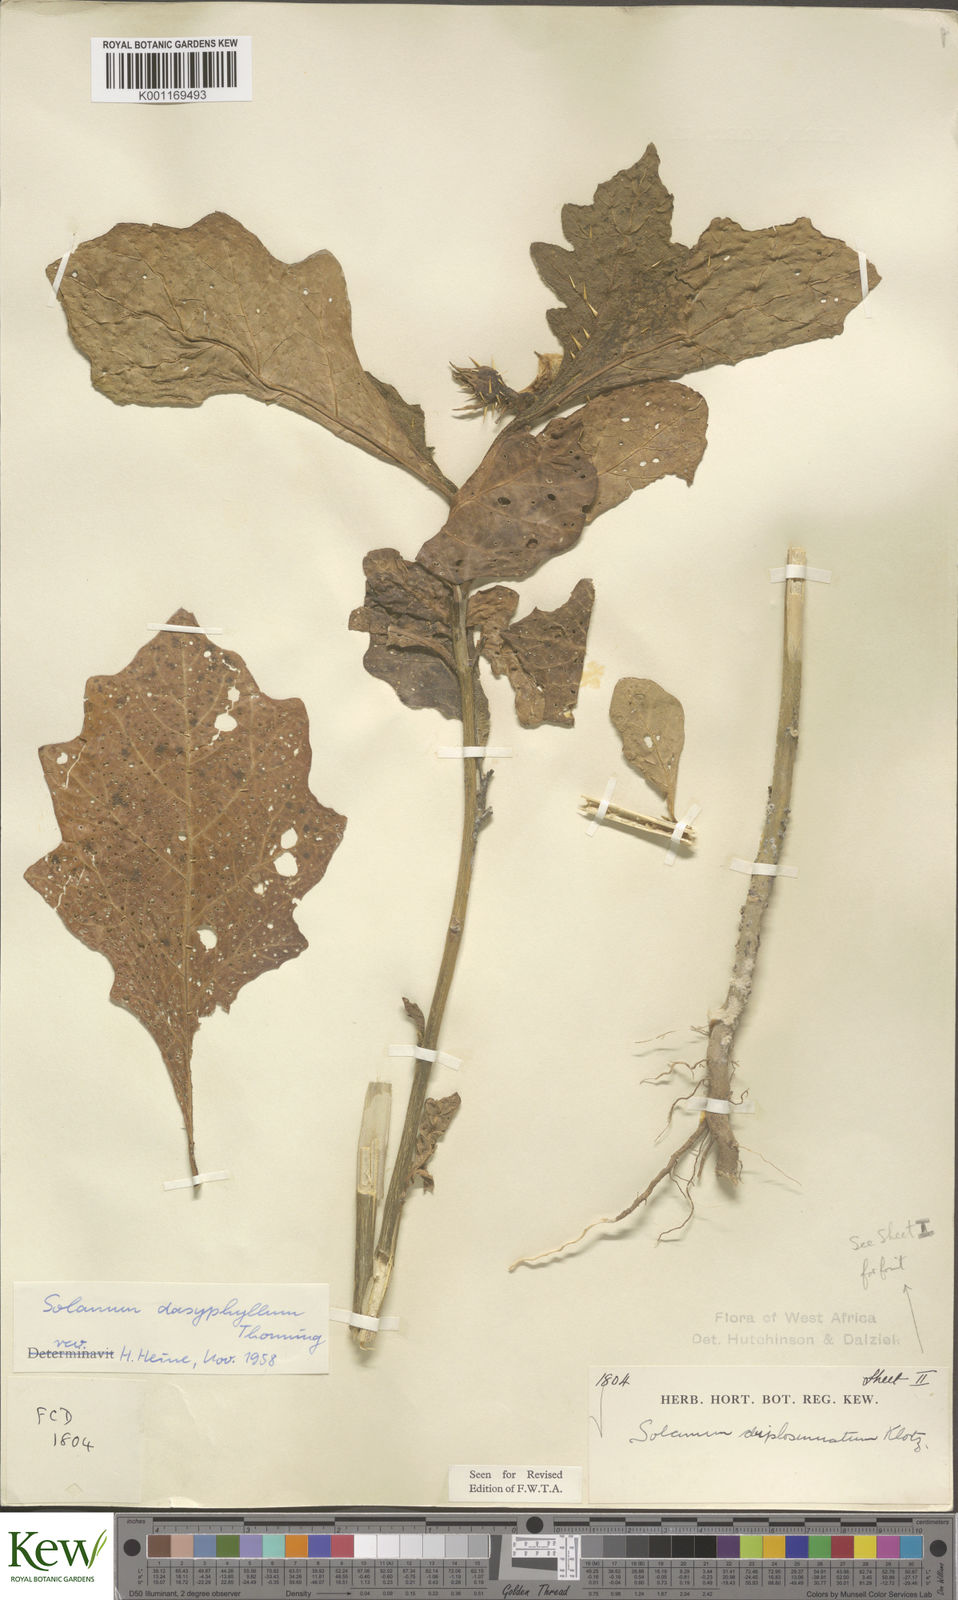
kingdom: Plantae
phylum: Tracheophyta
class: Magnoliopsida
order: Solanales
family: Solanaceae
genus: Solanum
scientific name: Solanum dasyphyllum
